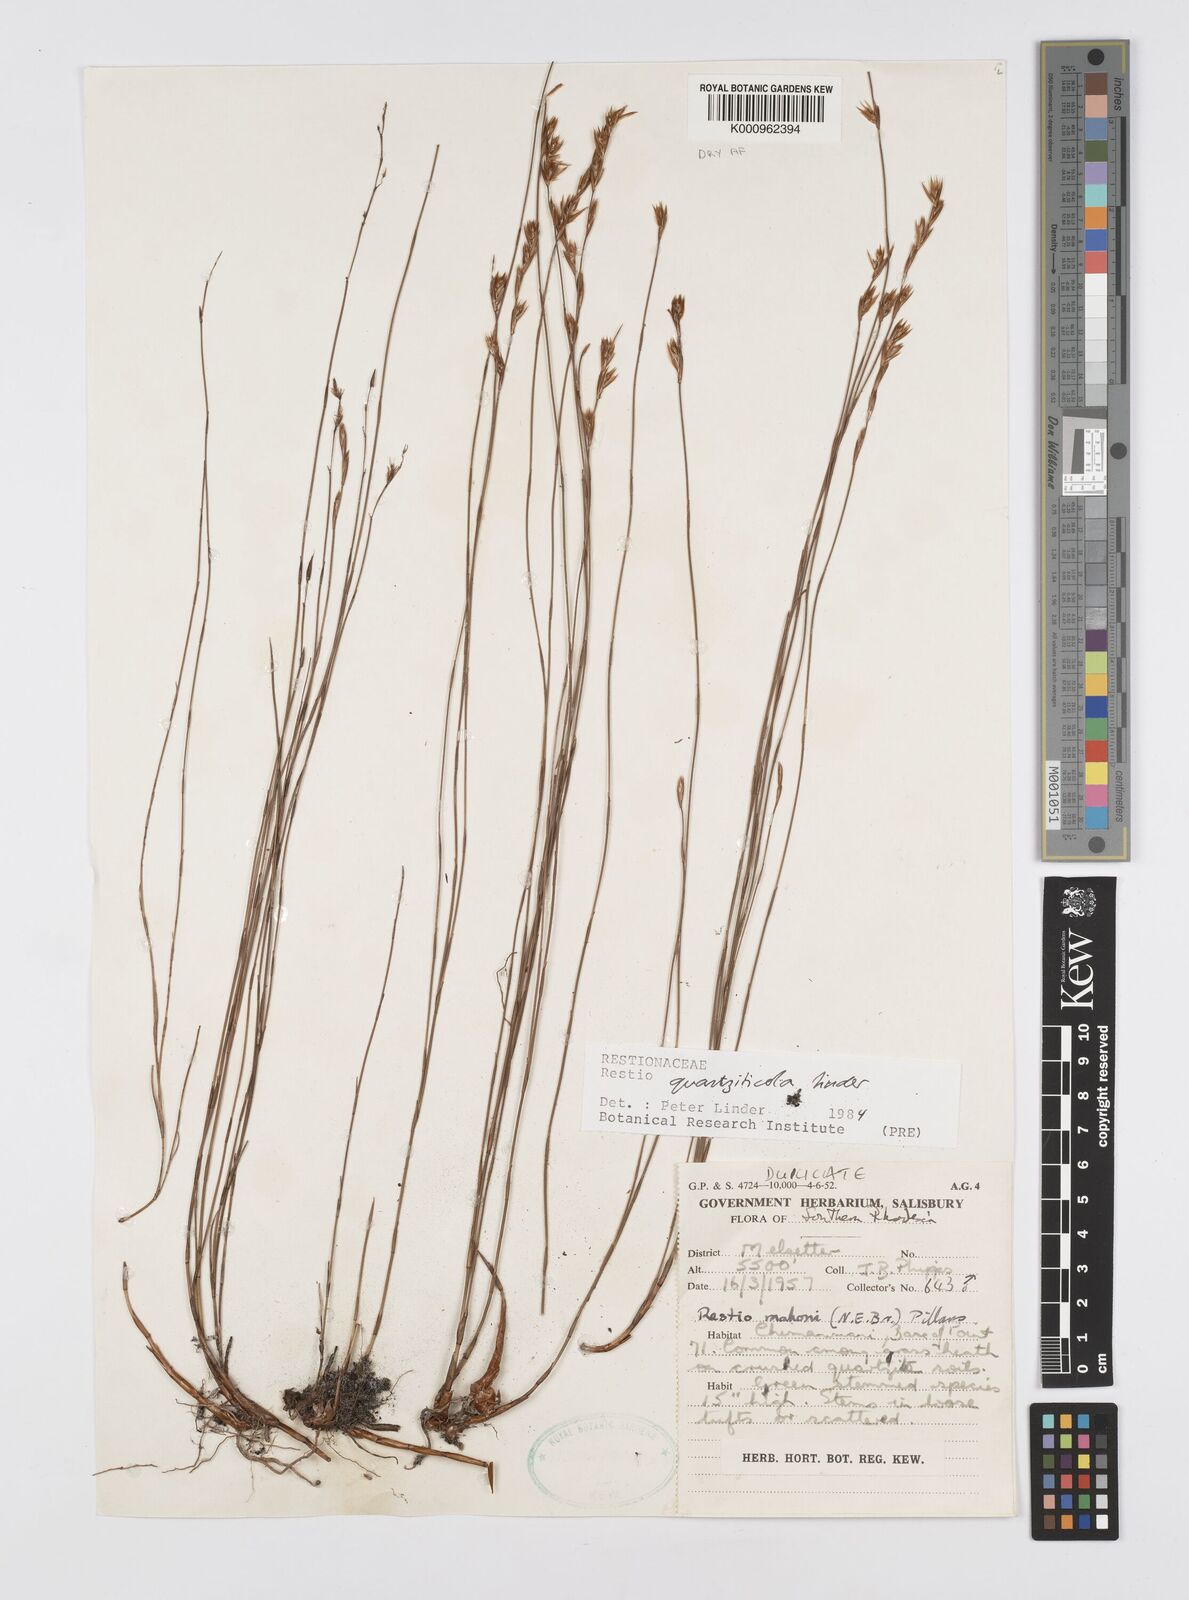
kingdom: Plantae
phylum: Tracheophyta
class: Liliopsida
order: Poales
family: Restionaceae
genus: Platycaulos
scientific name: Platycaulos quartziticola
